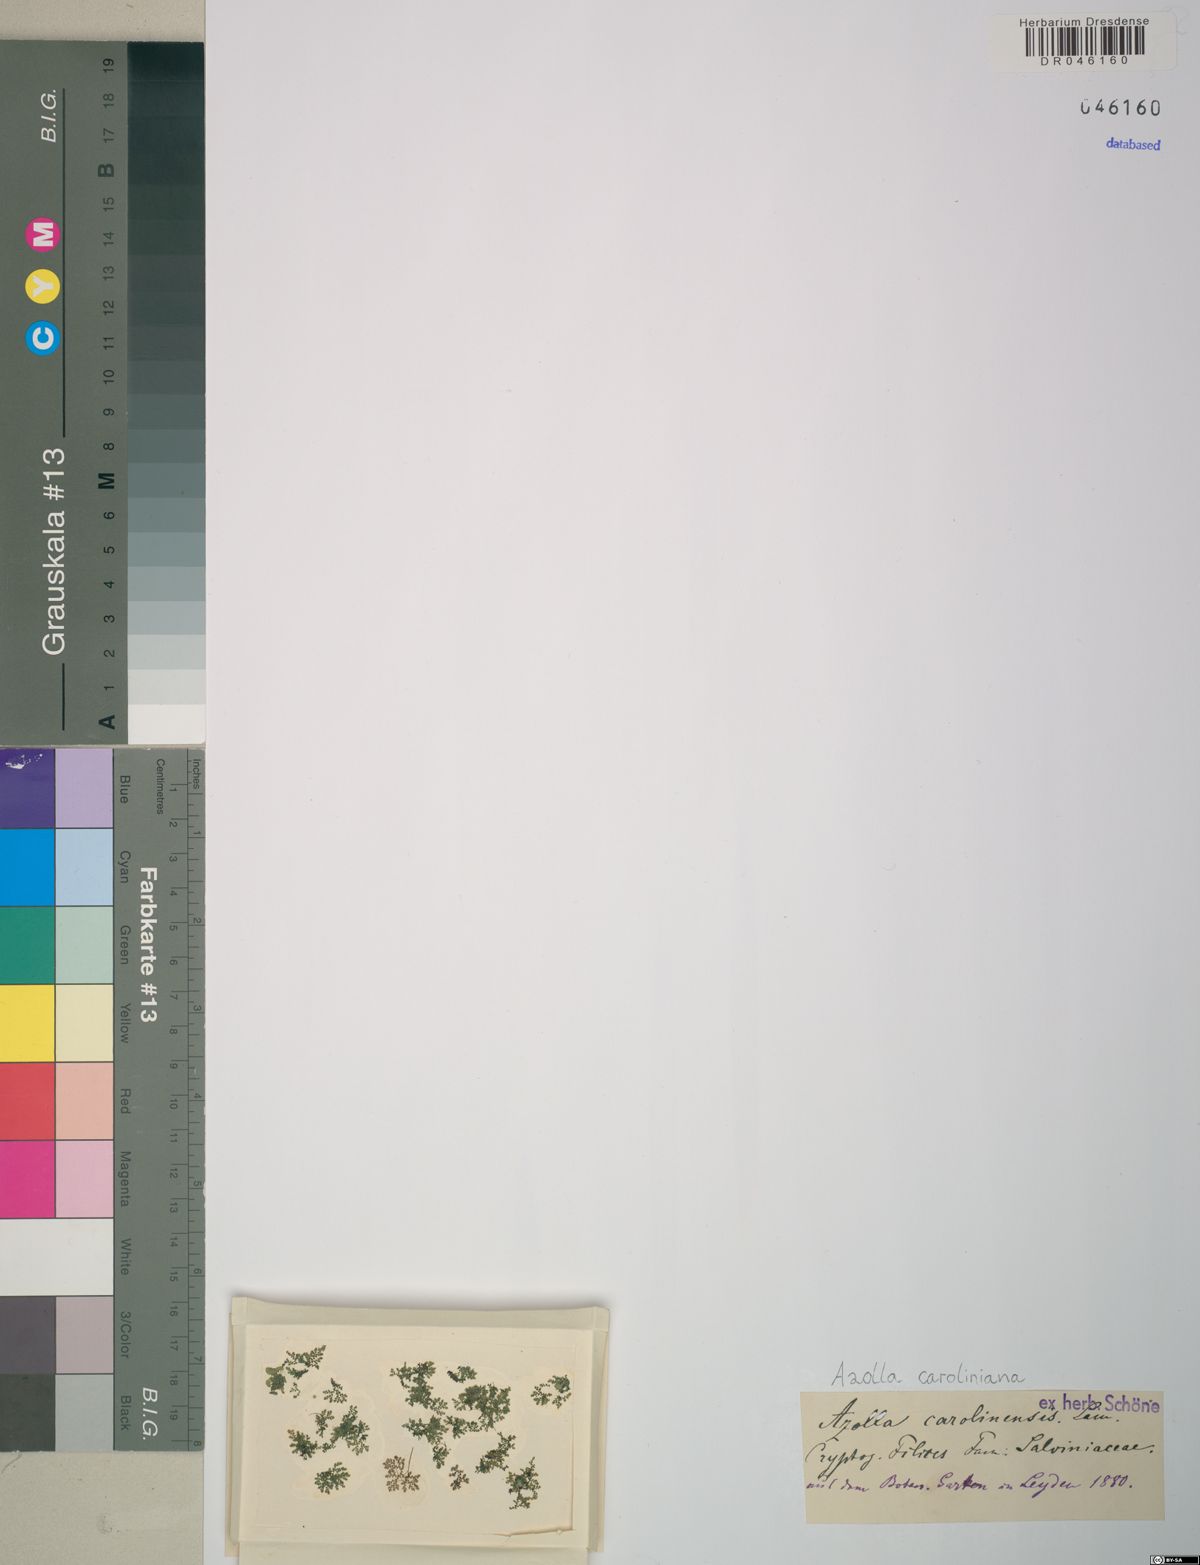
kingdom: Plantae
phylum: Tracheophyta
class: Polypodiopsida
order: Salviniales
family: Salviniaceae
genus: Azolla
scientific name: Azolla caroliniana
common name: Carolina mosquitofern
